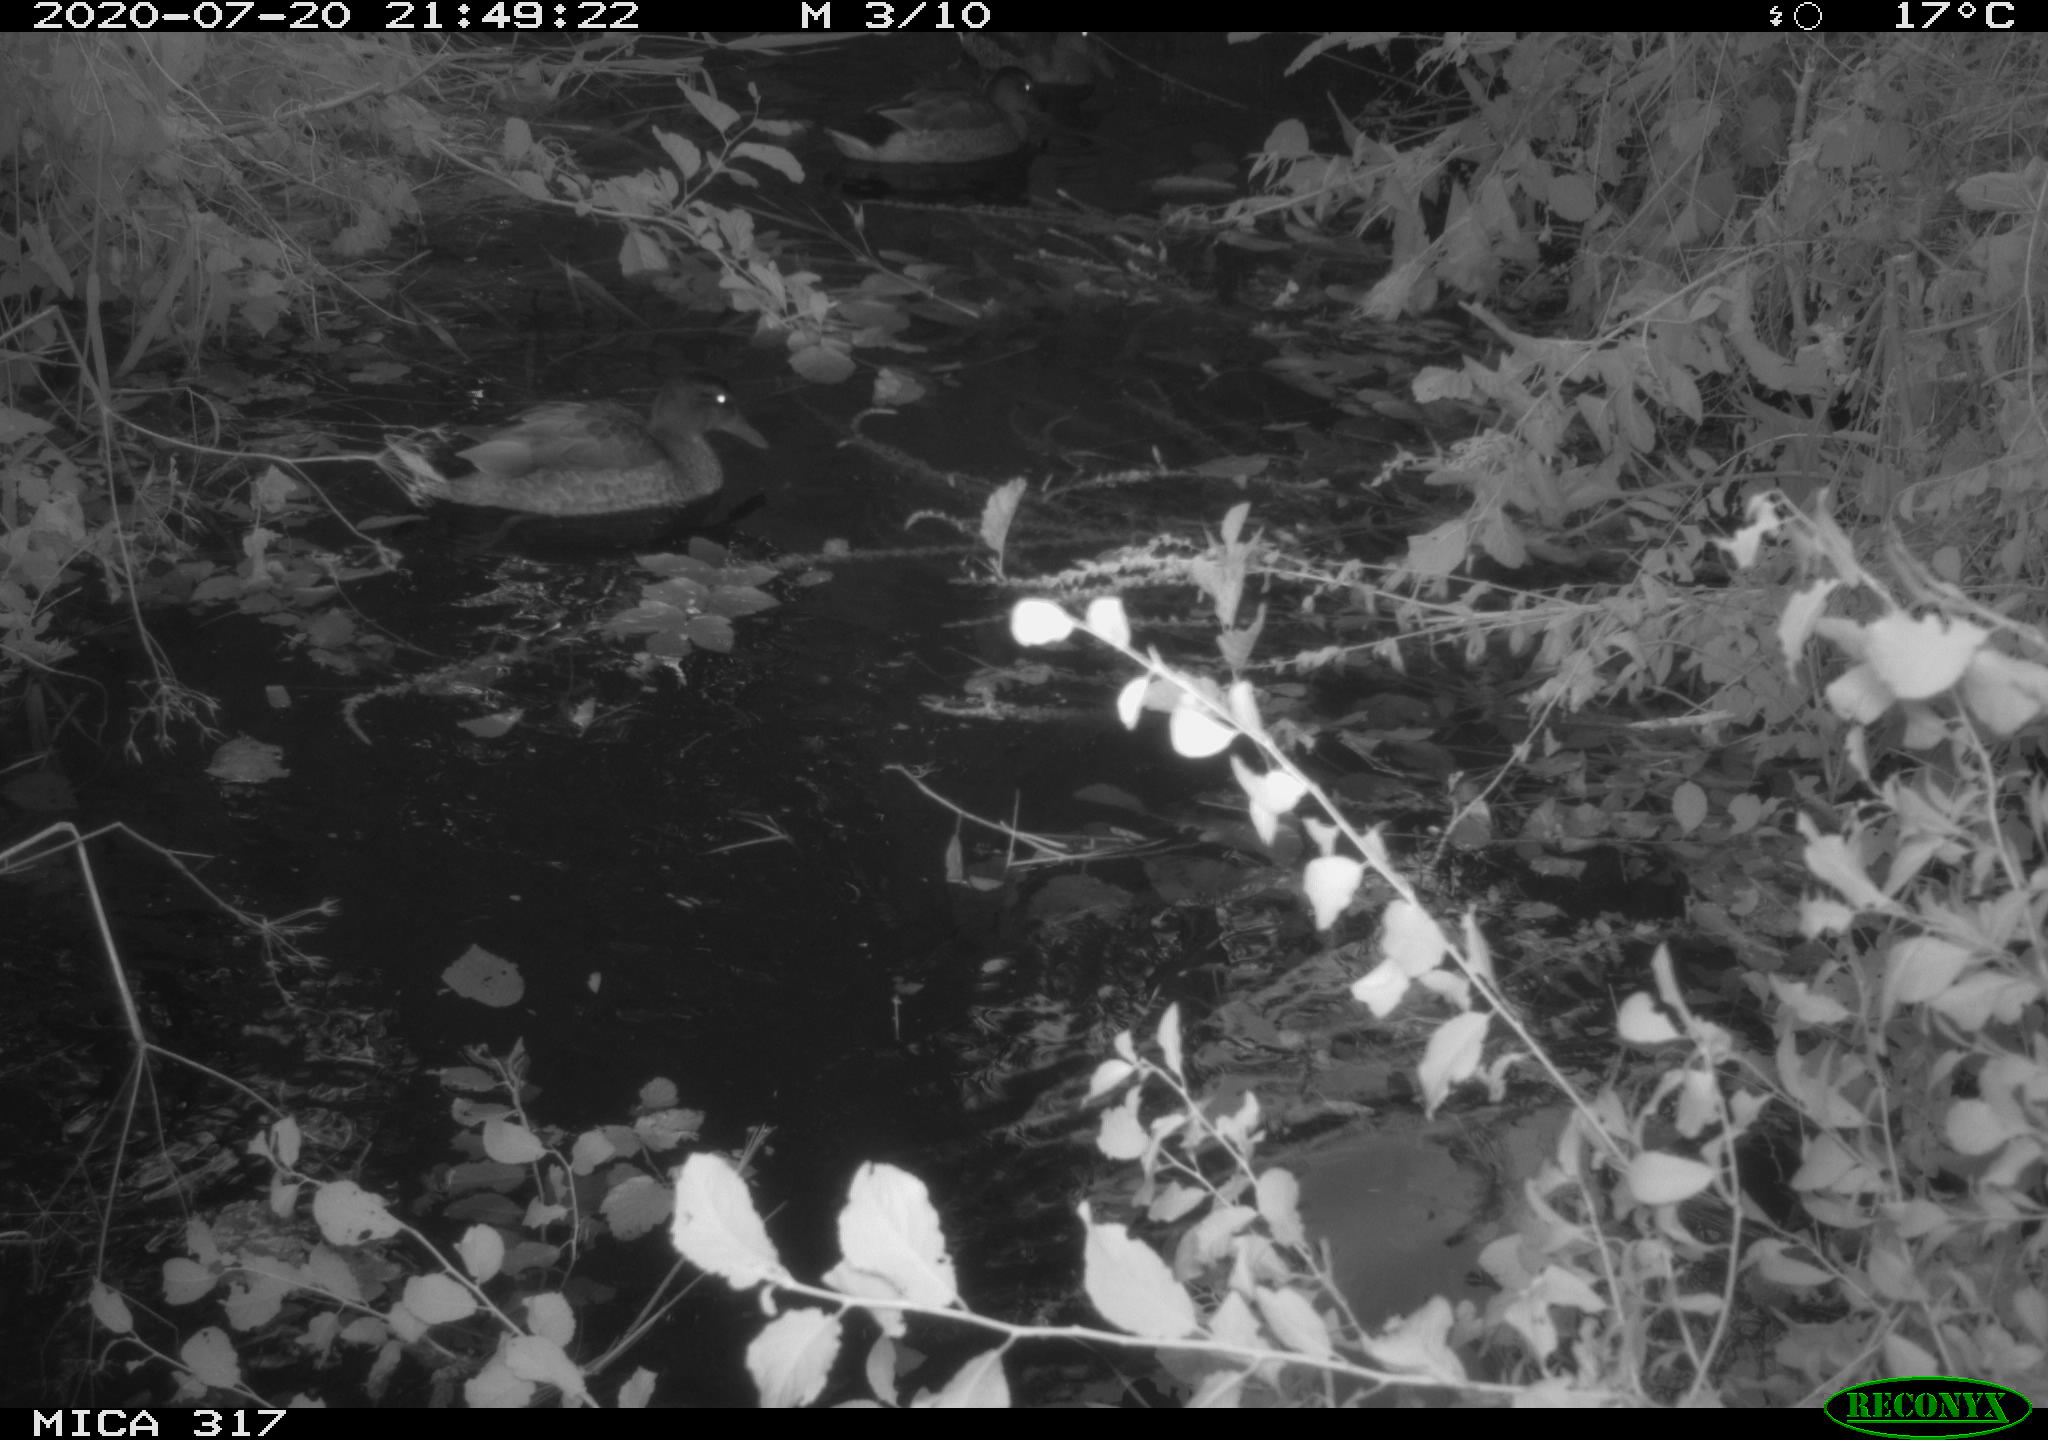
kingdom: Animalia
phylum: Chordata
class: Aves
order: Anseriformes
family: Anatidae
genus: Anas
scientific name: Anas platyrhynchos
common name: Mallard
